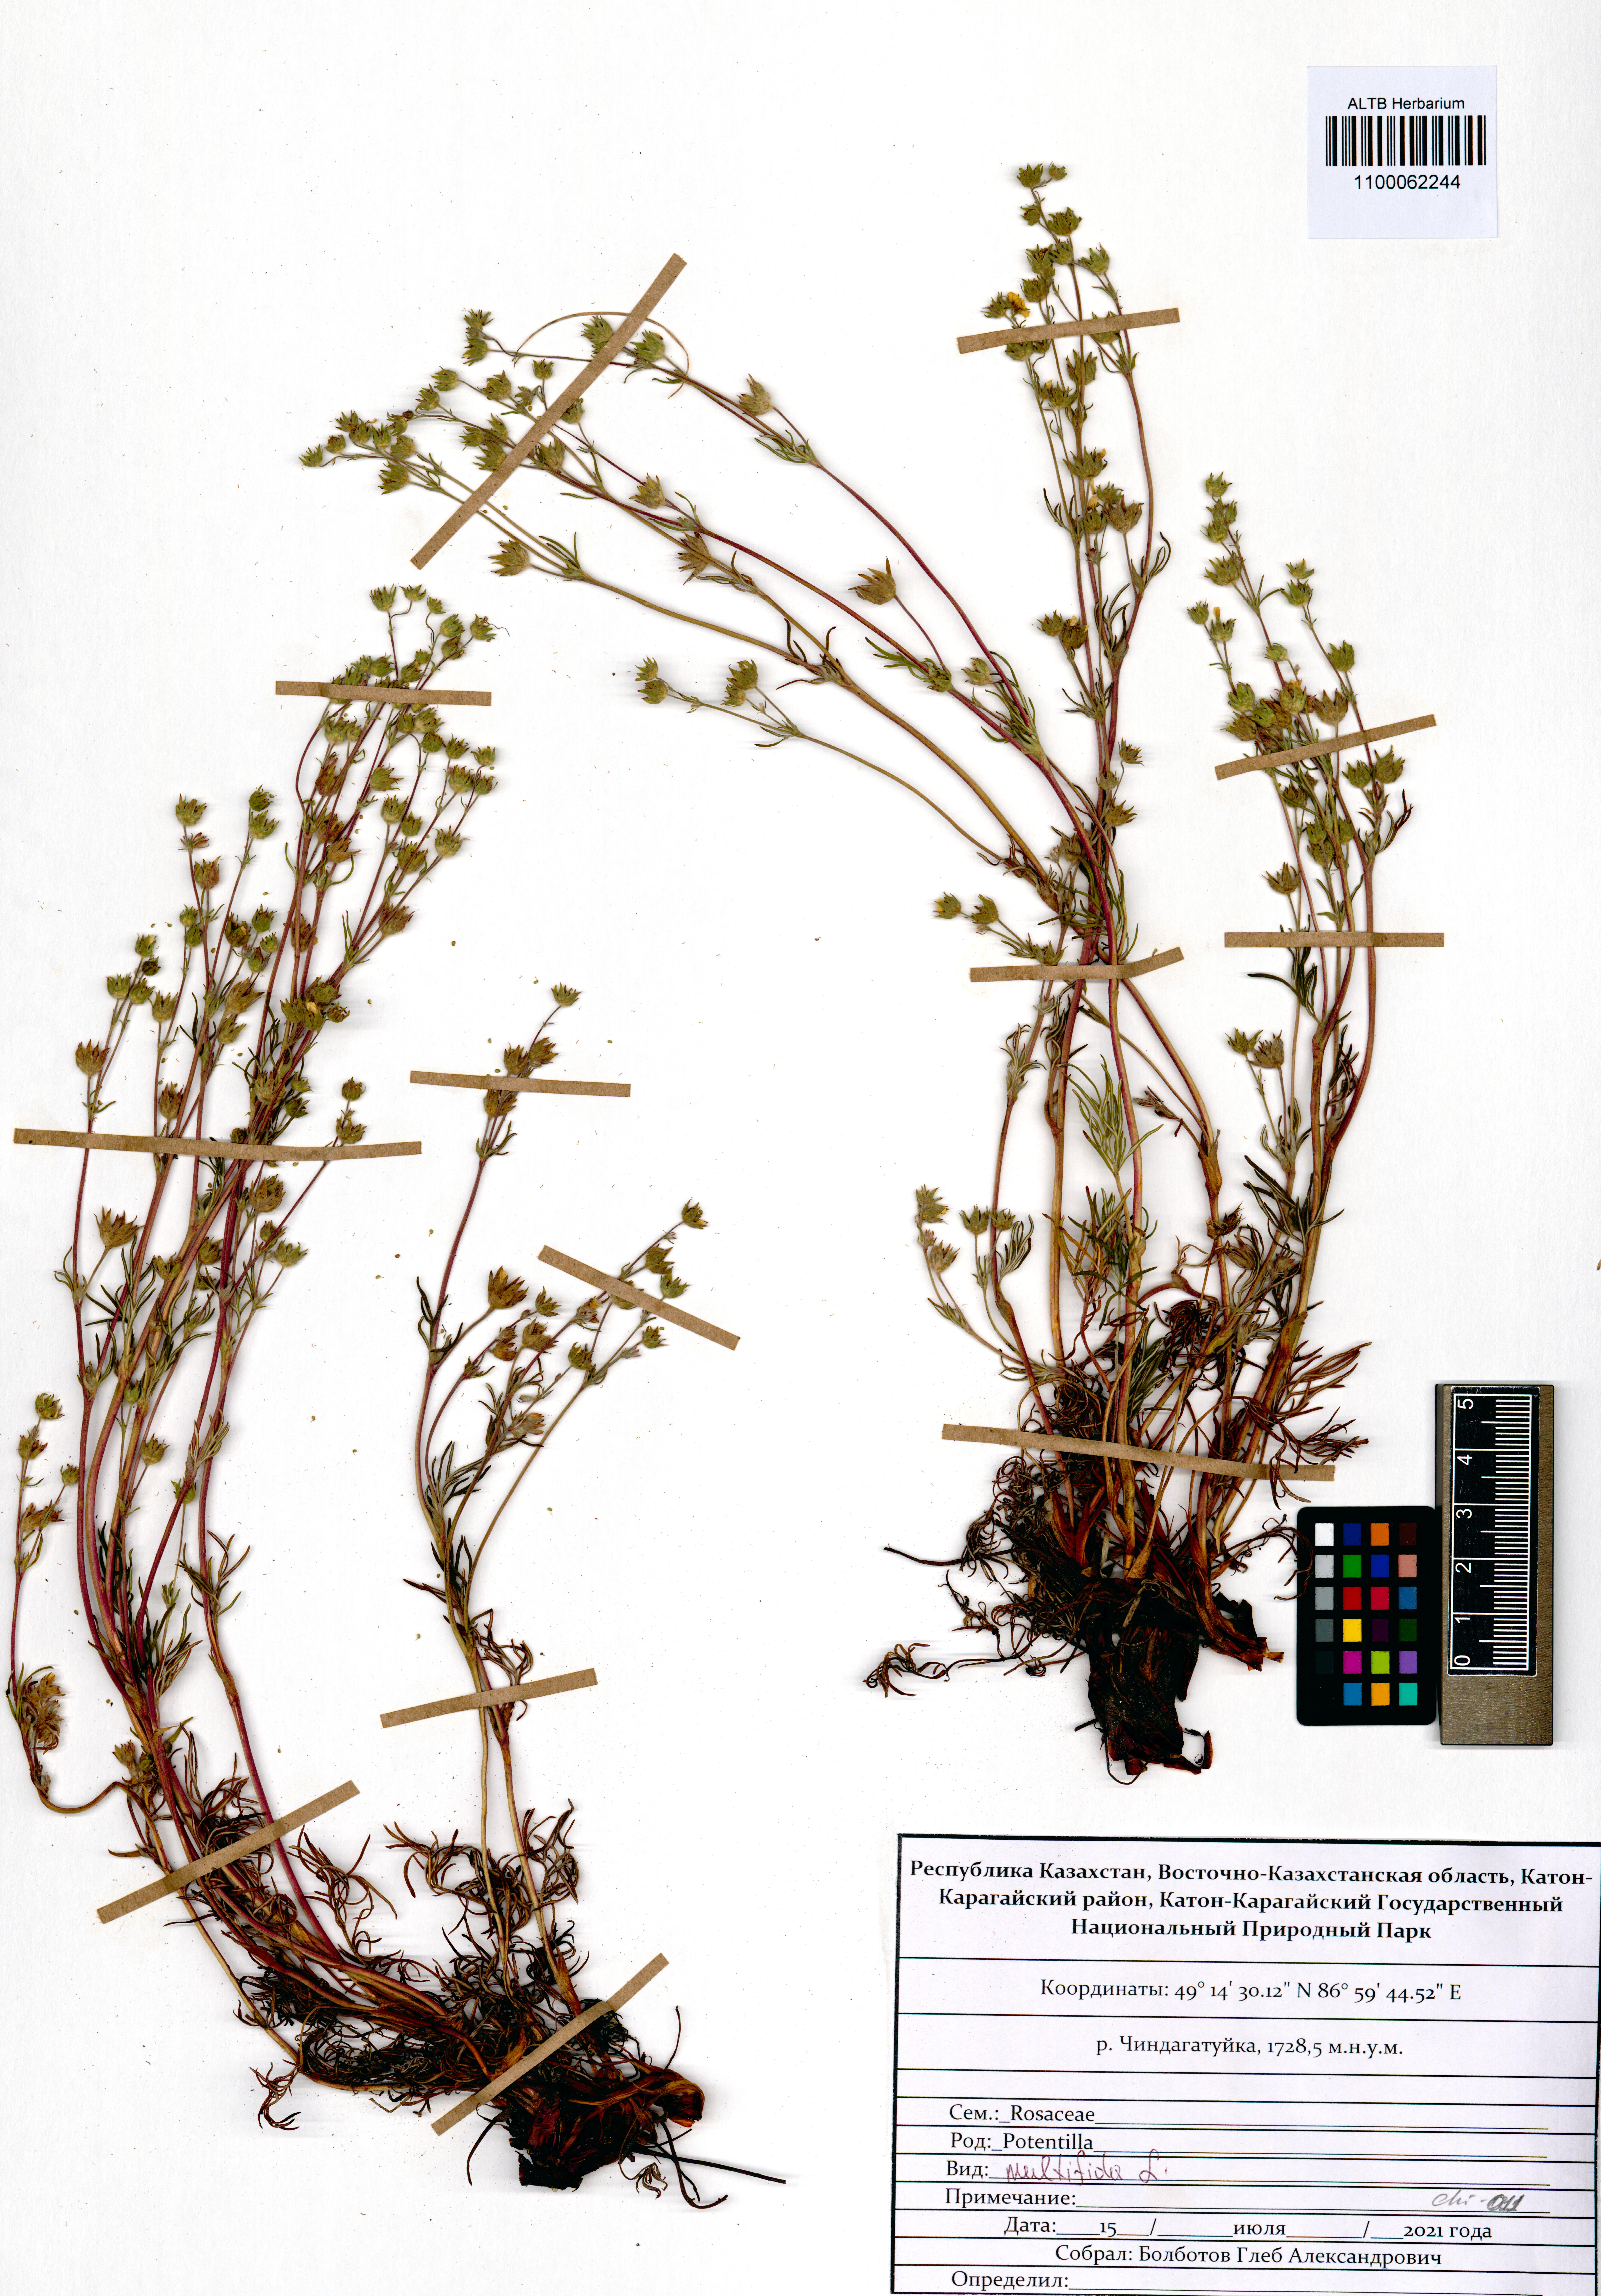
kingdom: Plantae
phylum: Tracheophyta
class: Magnoliopsida
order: Rosales
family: Rosaceae
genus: Potentilla
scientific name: Potentilla multifida
